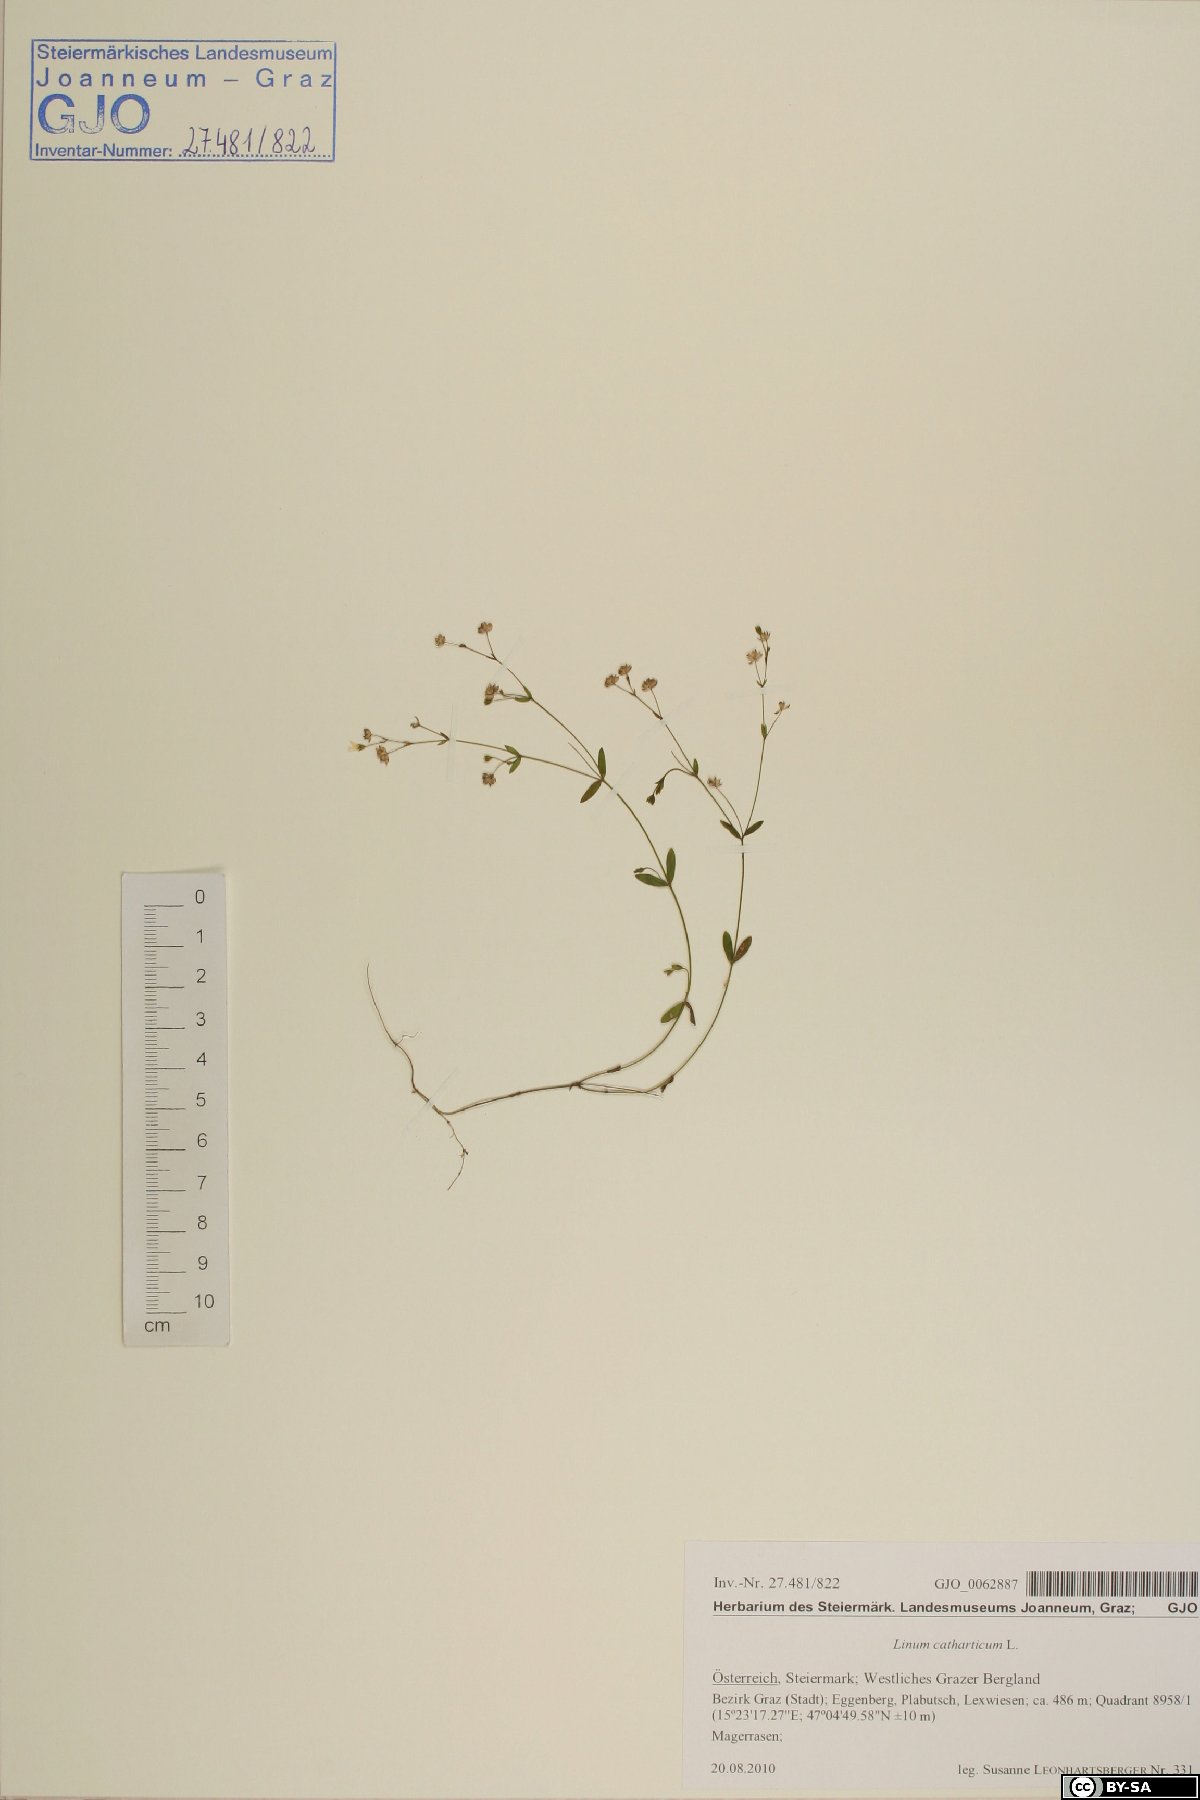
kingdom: Plantae
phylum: Tracheophyta
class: Magnoliopsida
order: Malpighiales
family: Linaceae
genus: Linum
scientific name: Linum catharticum
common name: Fairy flax
